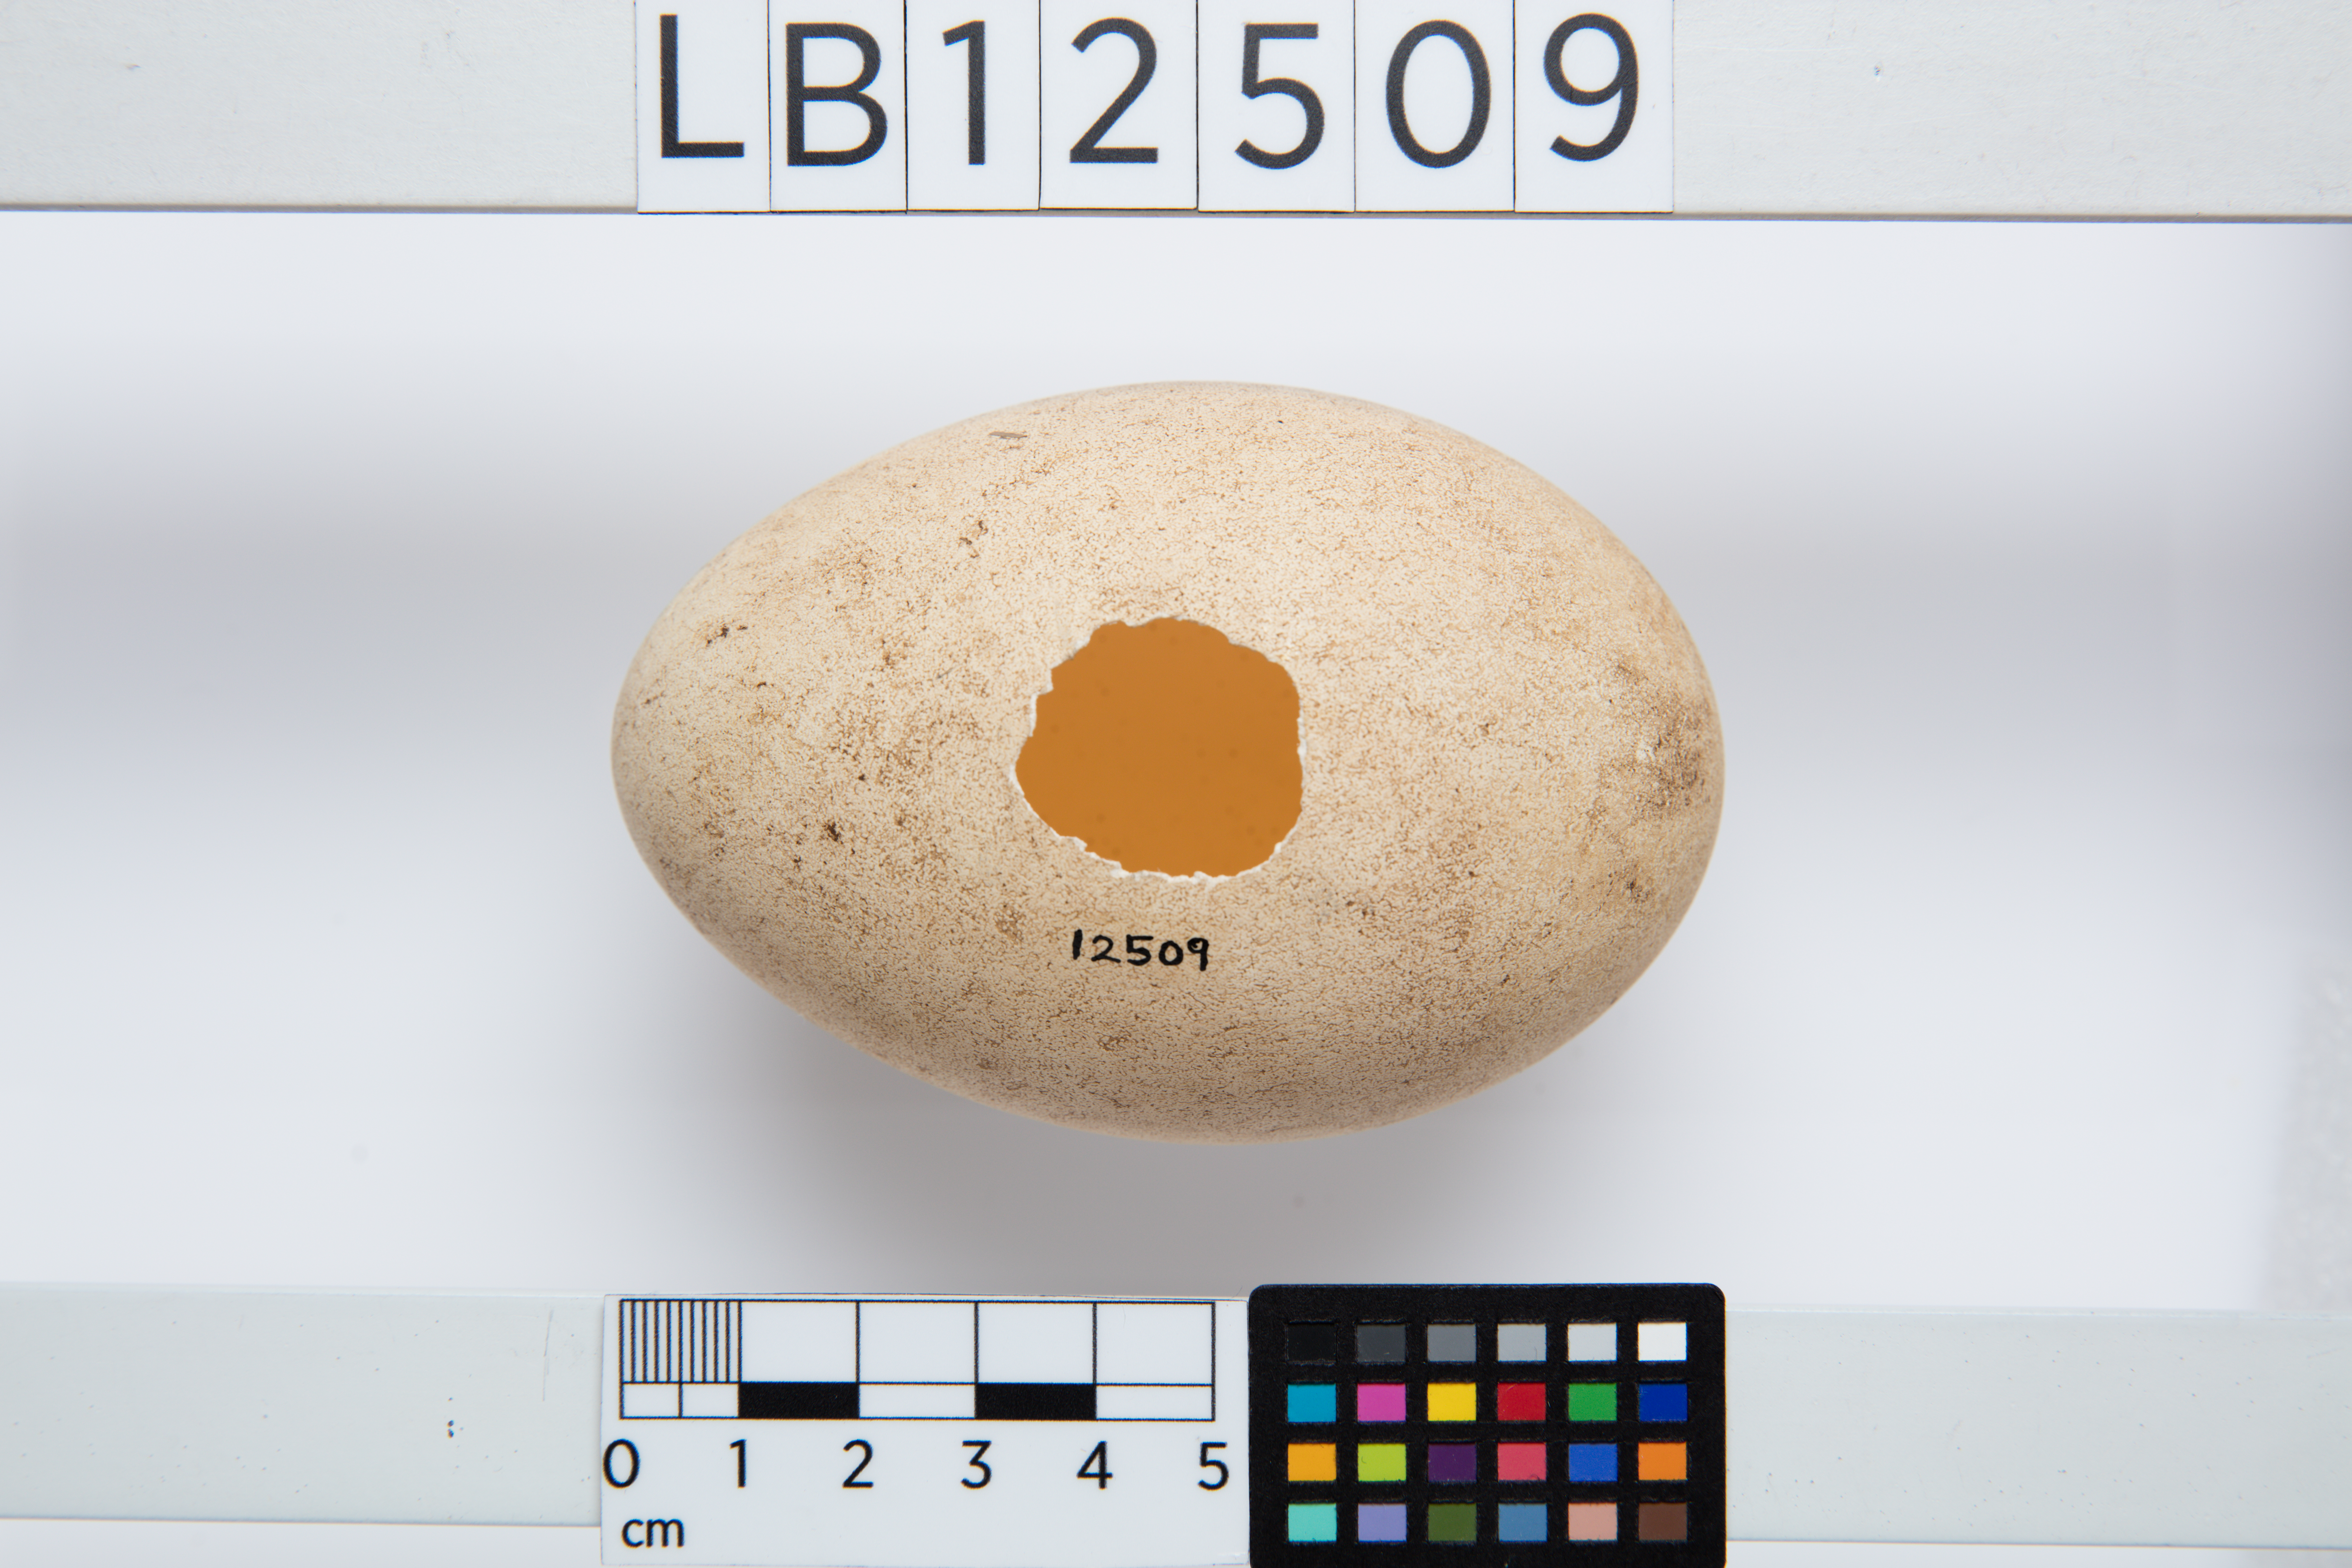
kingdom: Animalia
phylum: Chordata
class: Aves
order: Procellariiformes
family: Diomedeidae
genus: Thalassarche
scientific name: Thalassarche cauta
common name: Shy albatross
